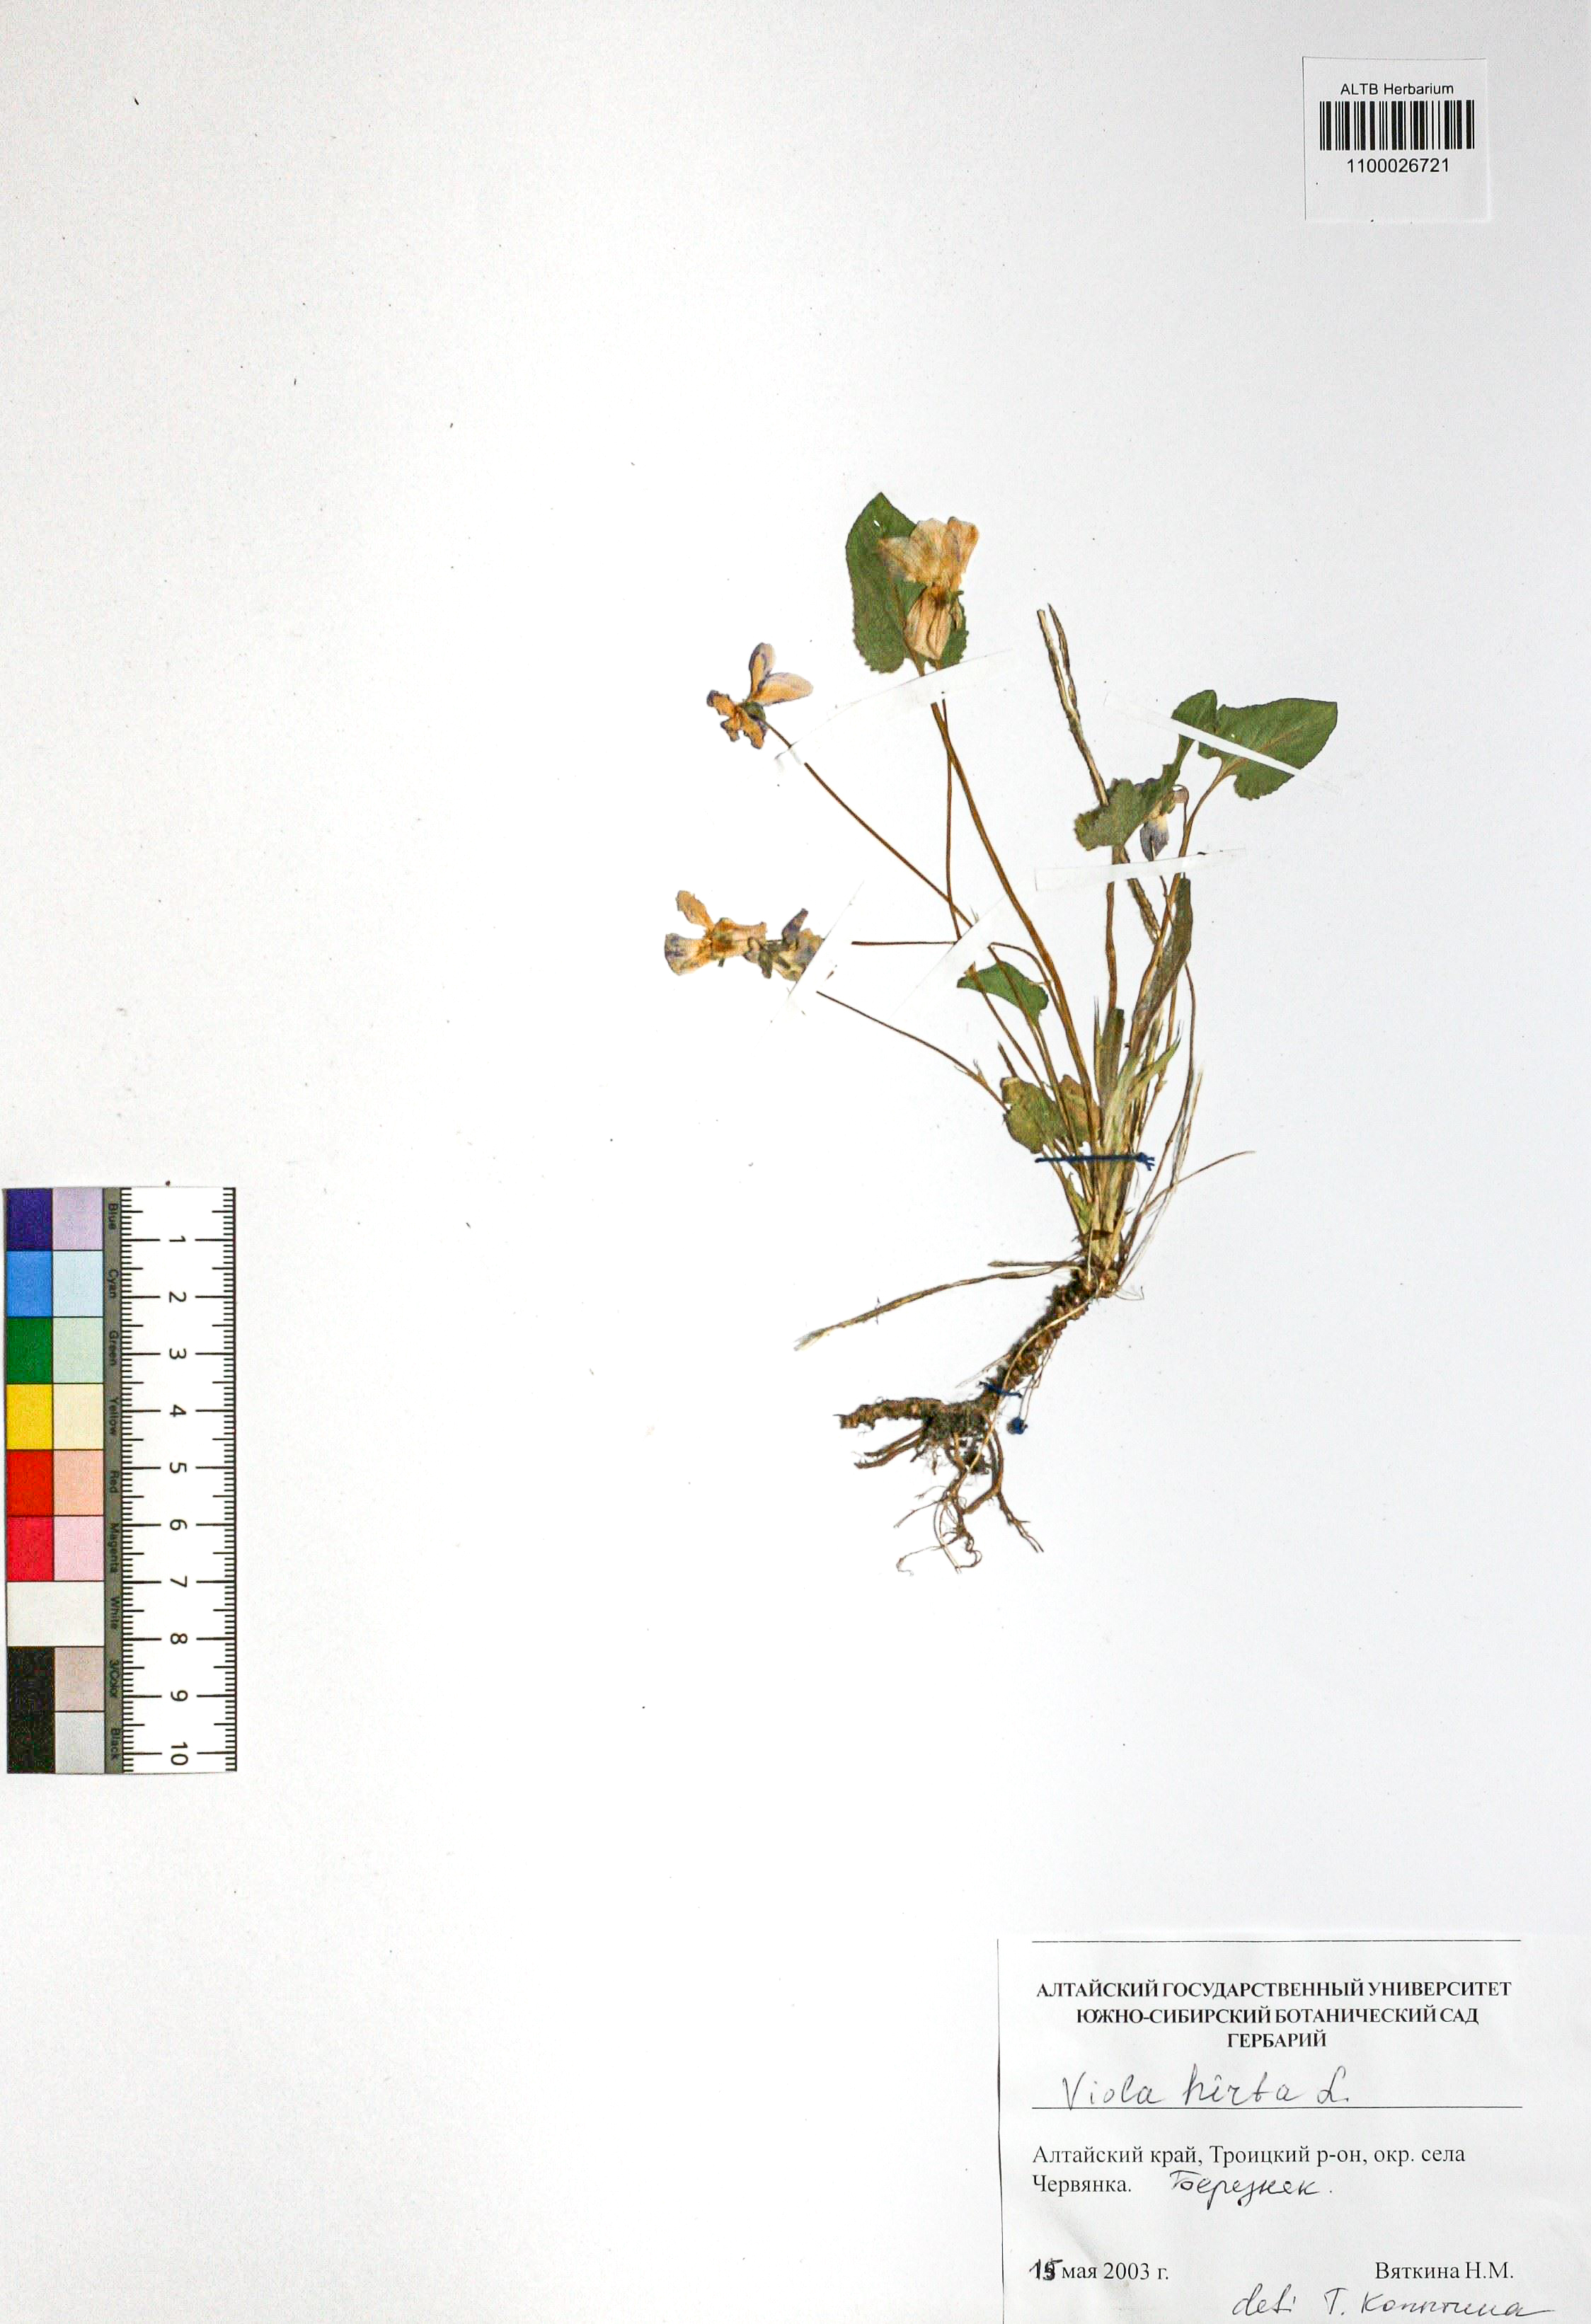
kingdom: Plantae
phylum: Tracheophyta
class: Magnoliopsida
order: Malpighiales
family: Violaceae
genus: Viola
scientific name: Viola hirta
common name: Hairy violet
